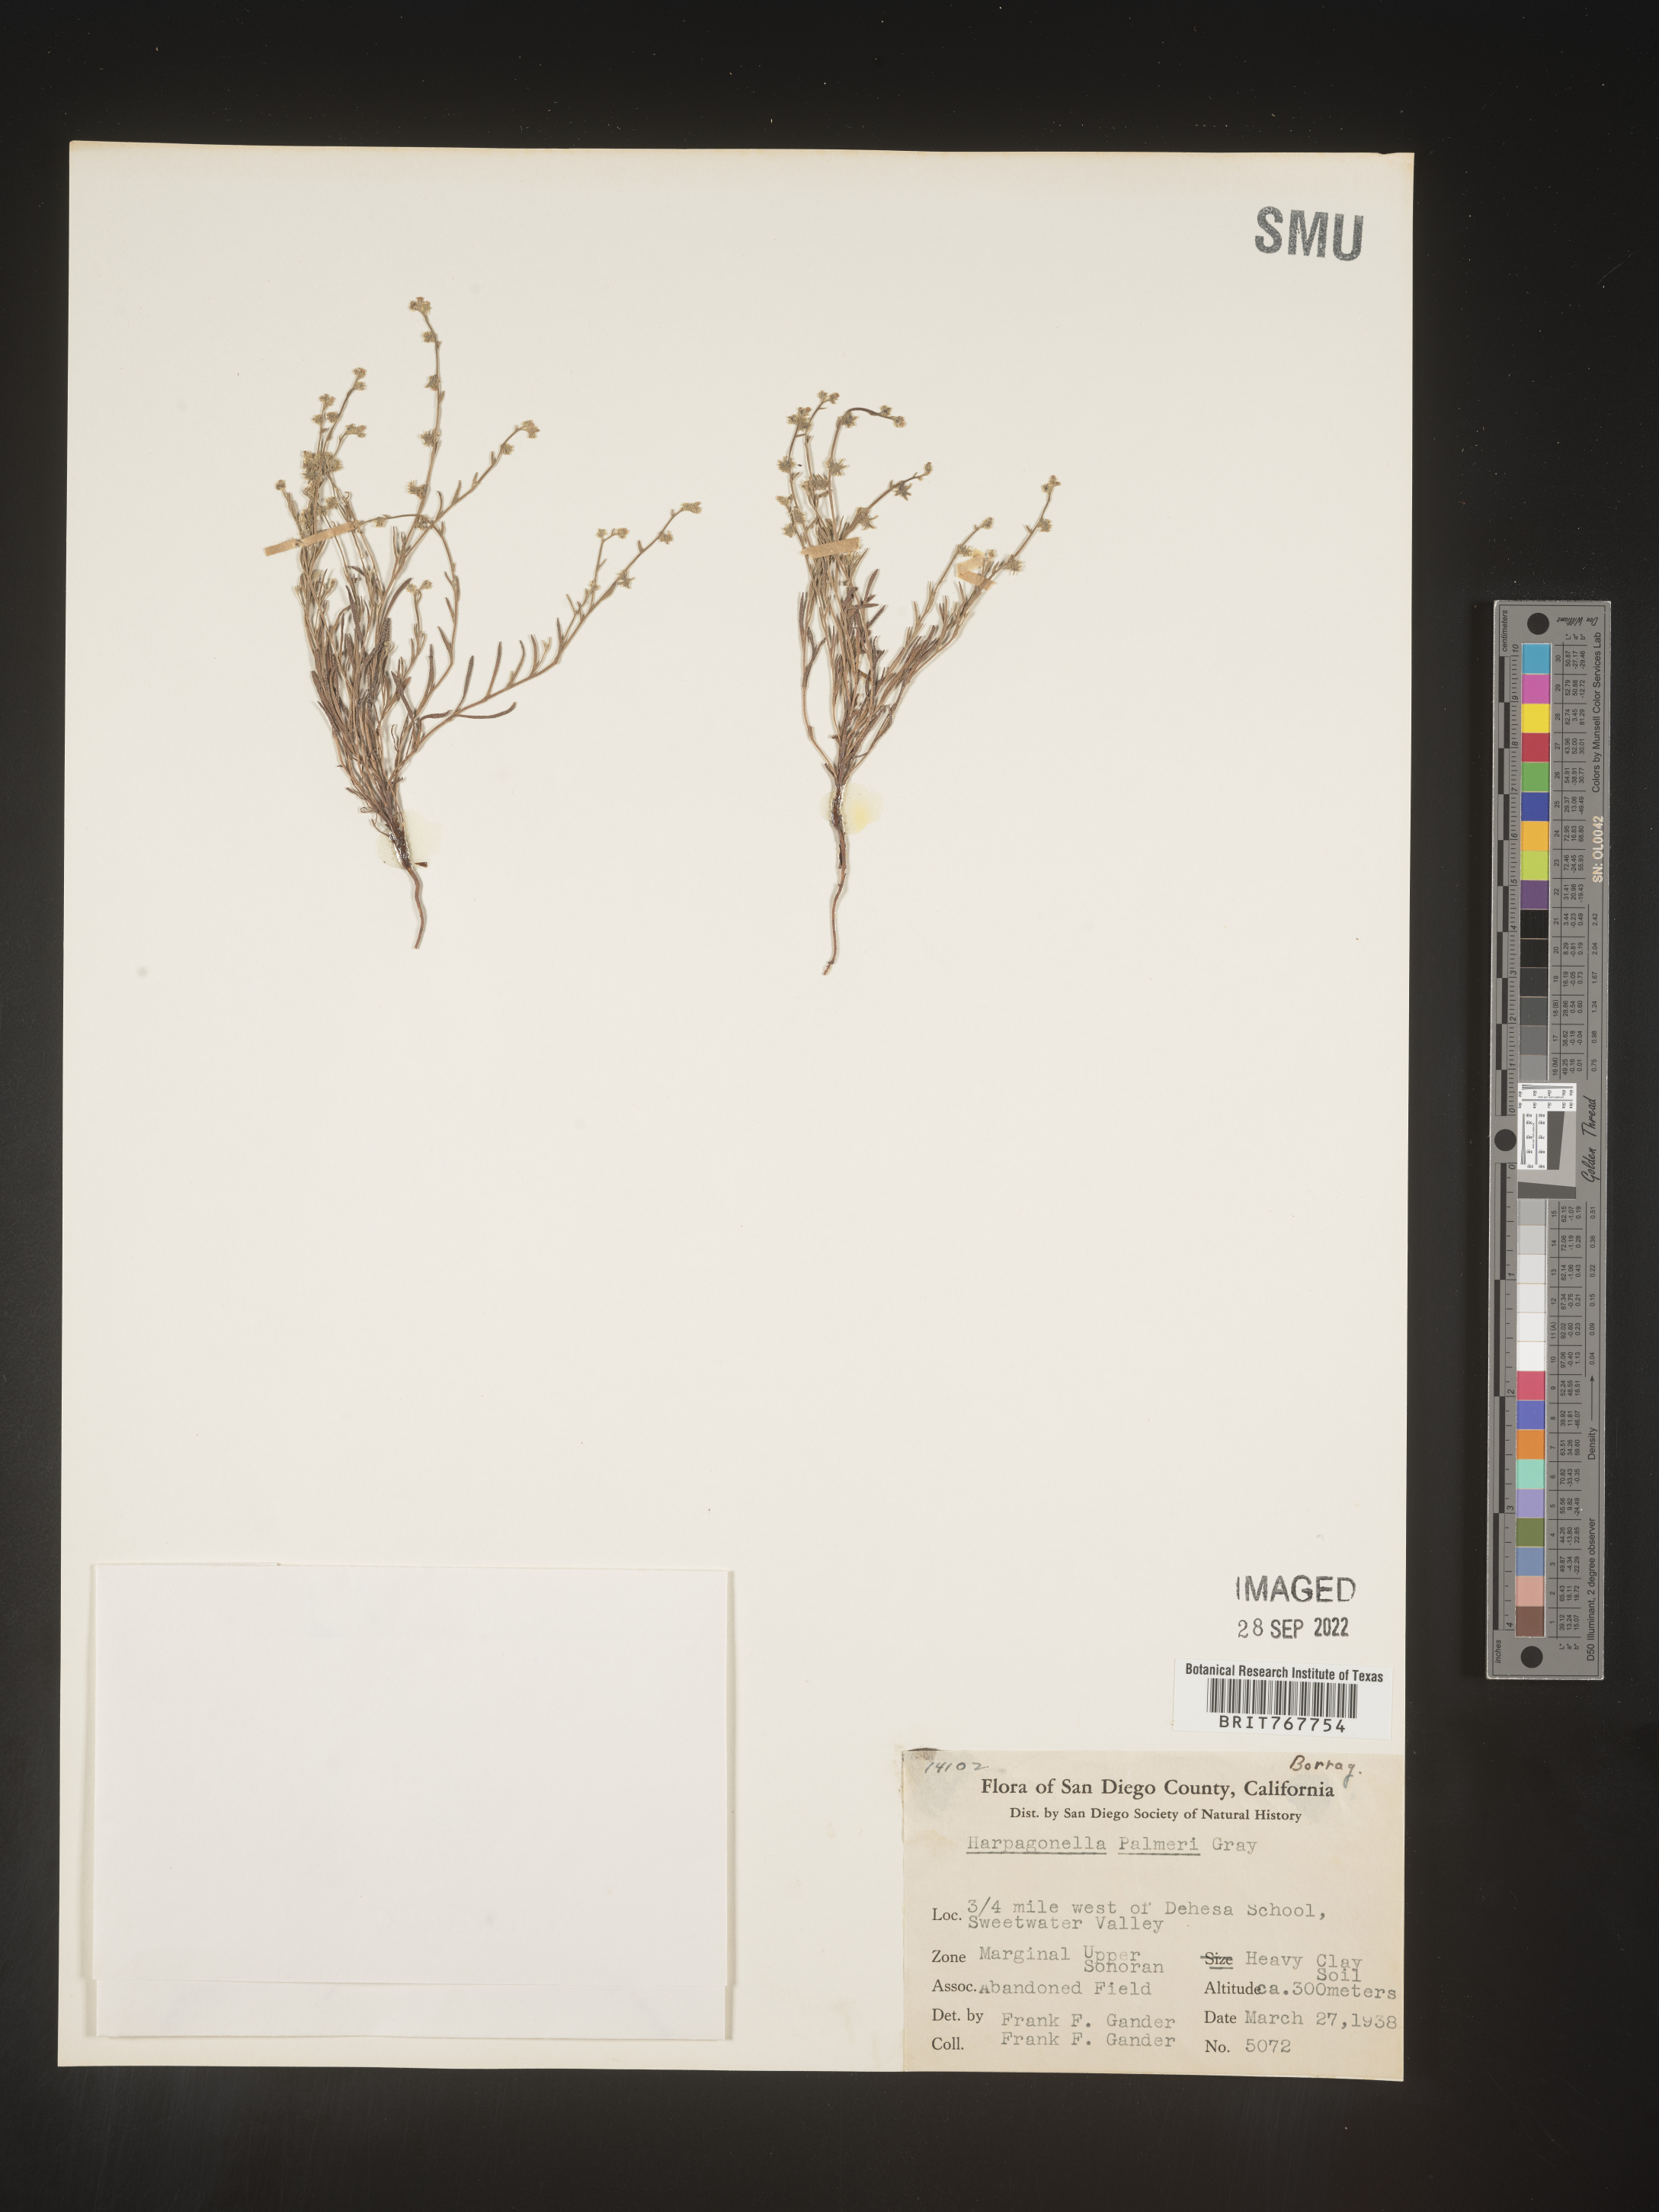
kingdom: Plantae
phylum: Tracheophyta
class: Magnoliopsida
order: Boraginales
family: Boraginaceae
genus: Harpagonella
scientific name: Harpagonella
